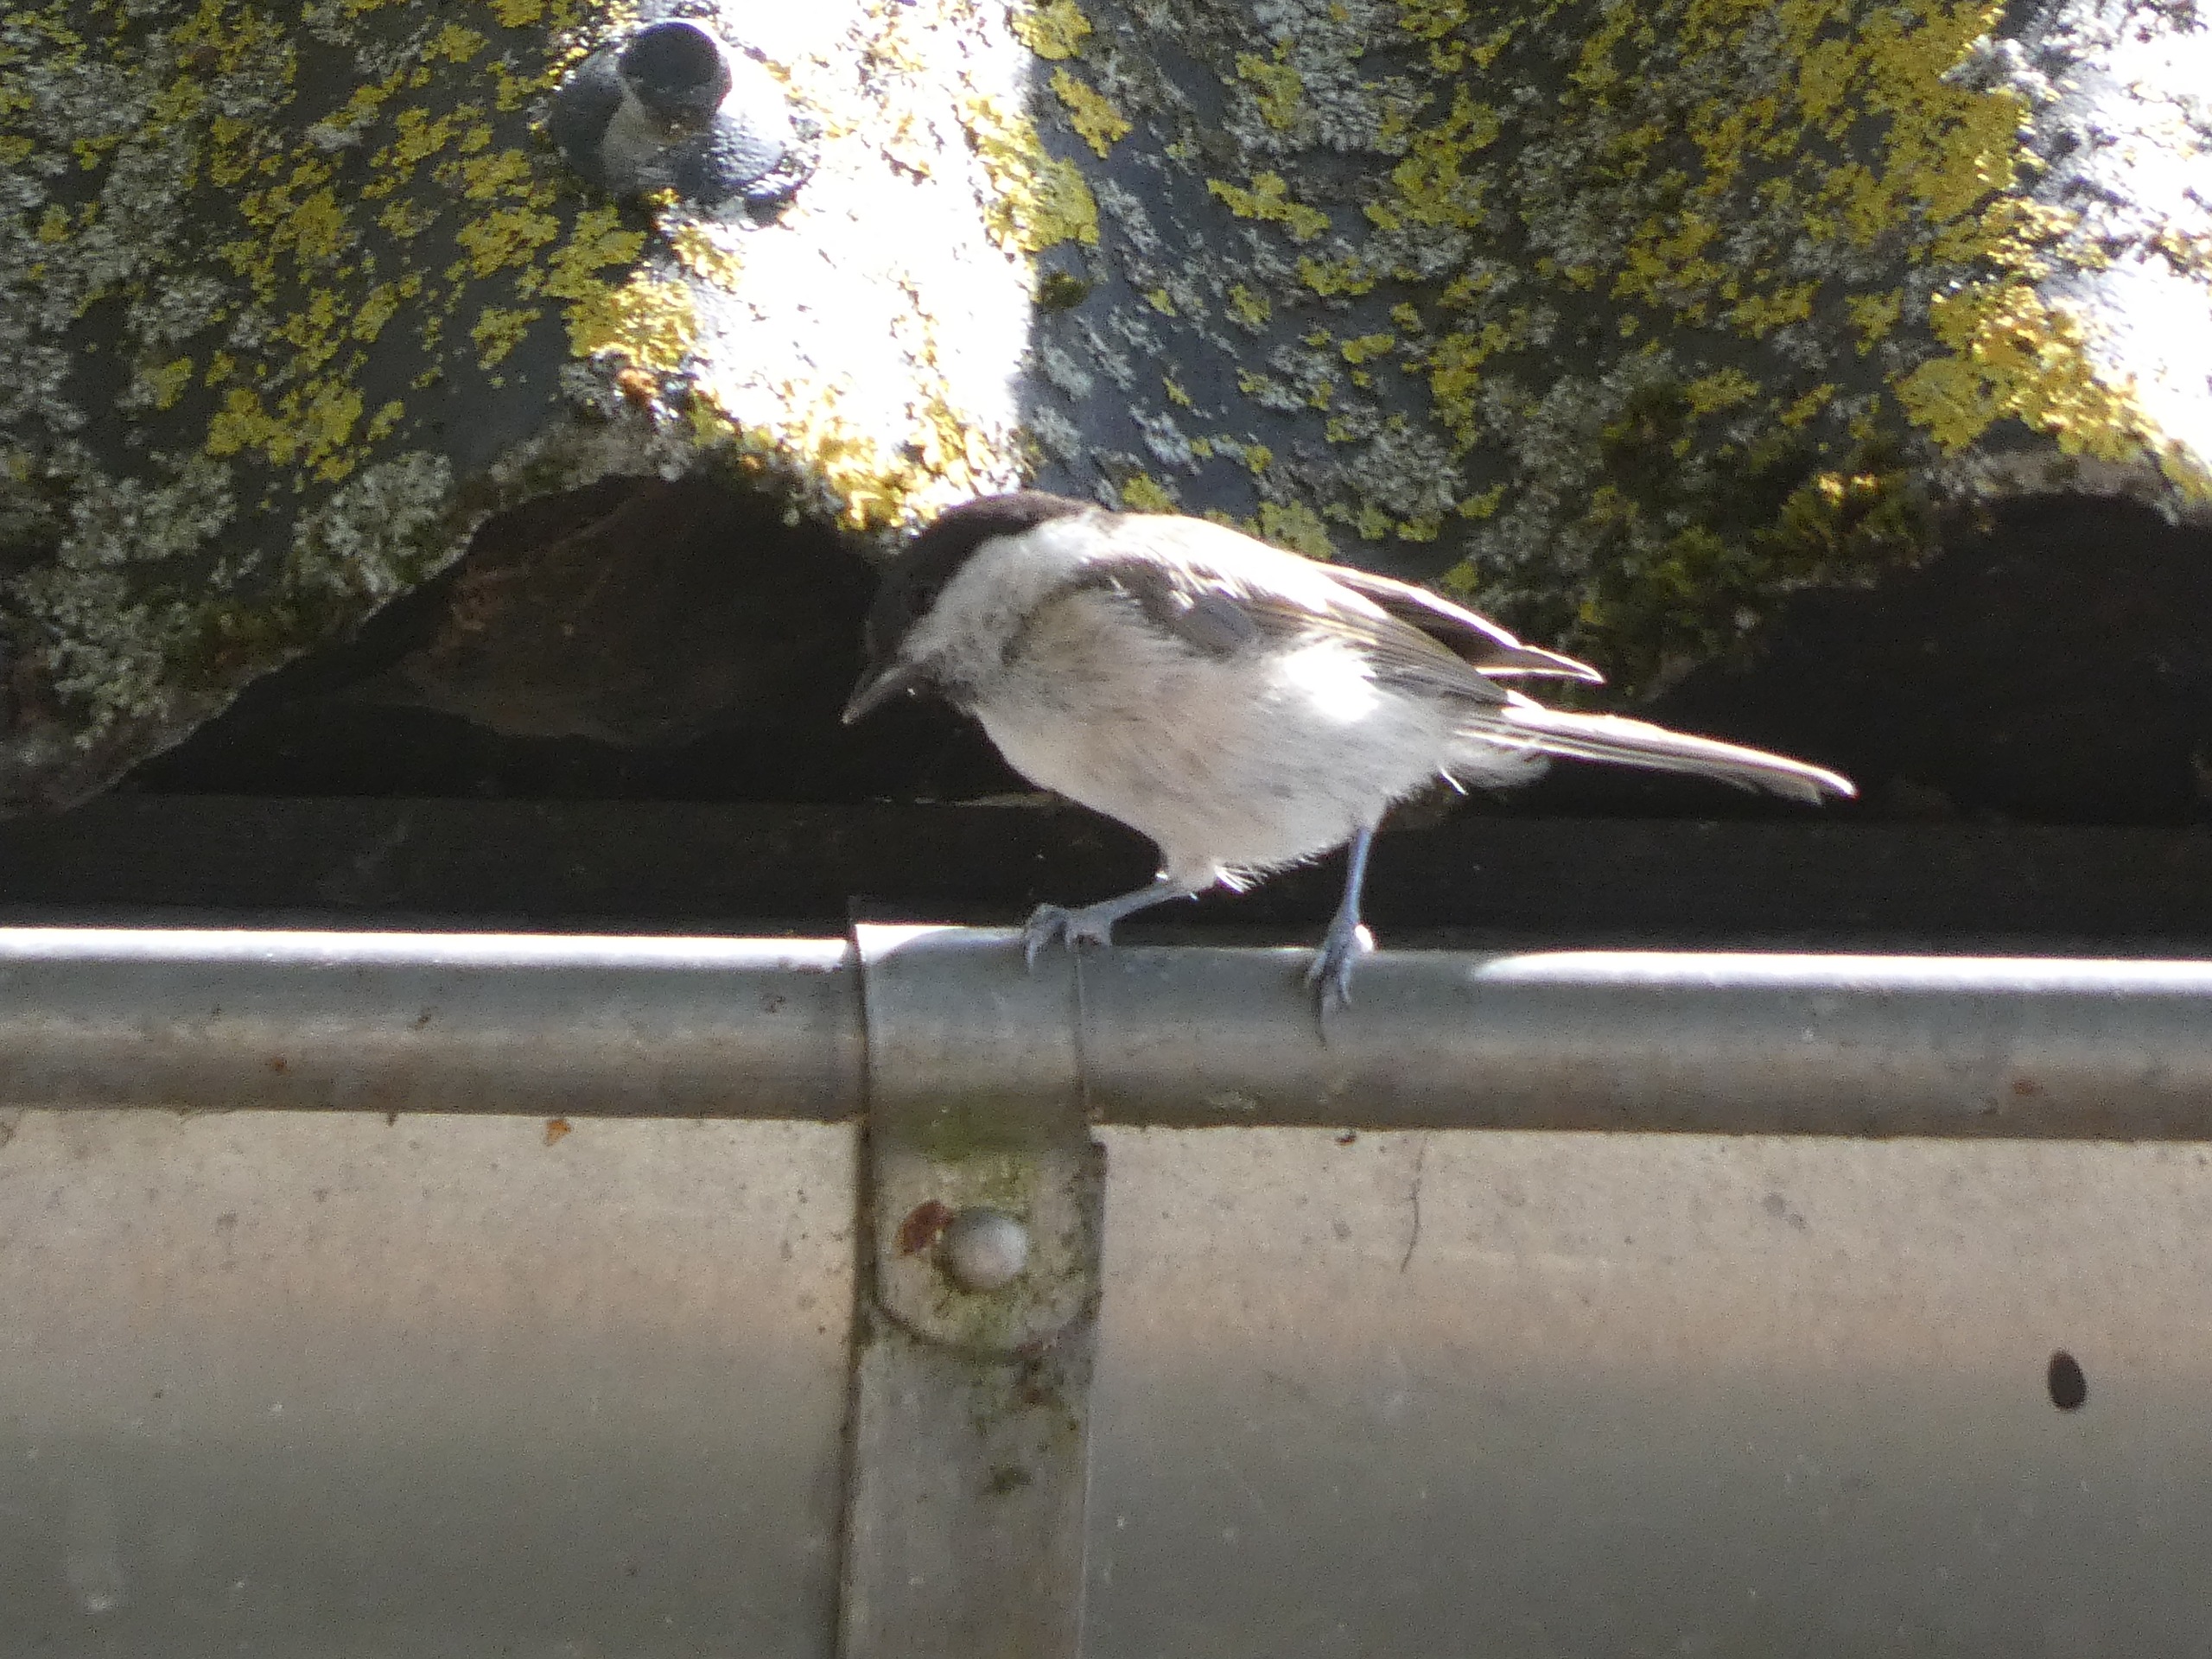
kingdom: Animalia
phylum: Chordata
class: Aves
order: Passeriformes
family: Paridae
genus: Poecile
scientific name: Poecile palustris
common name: Sumpmejse
